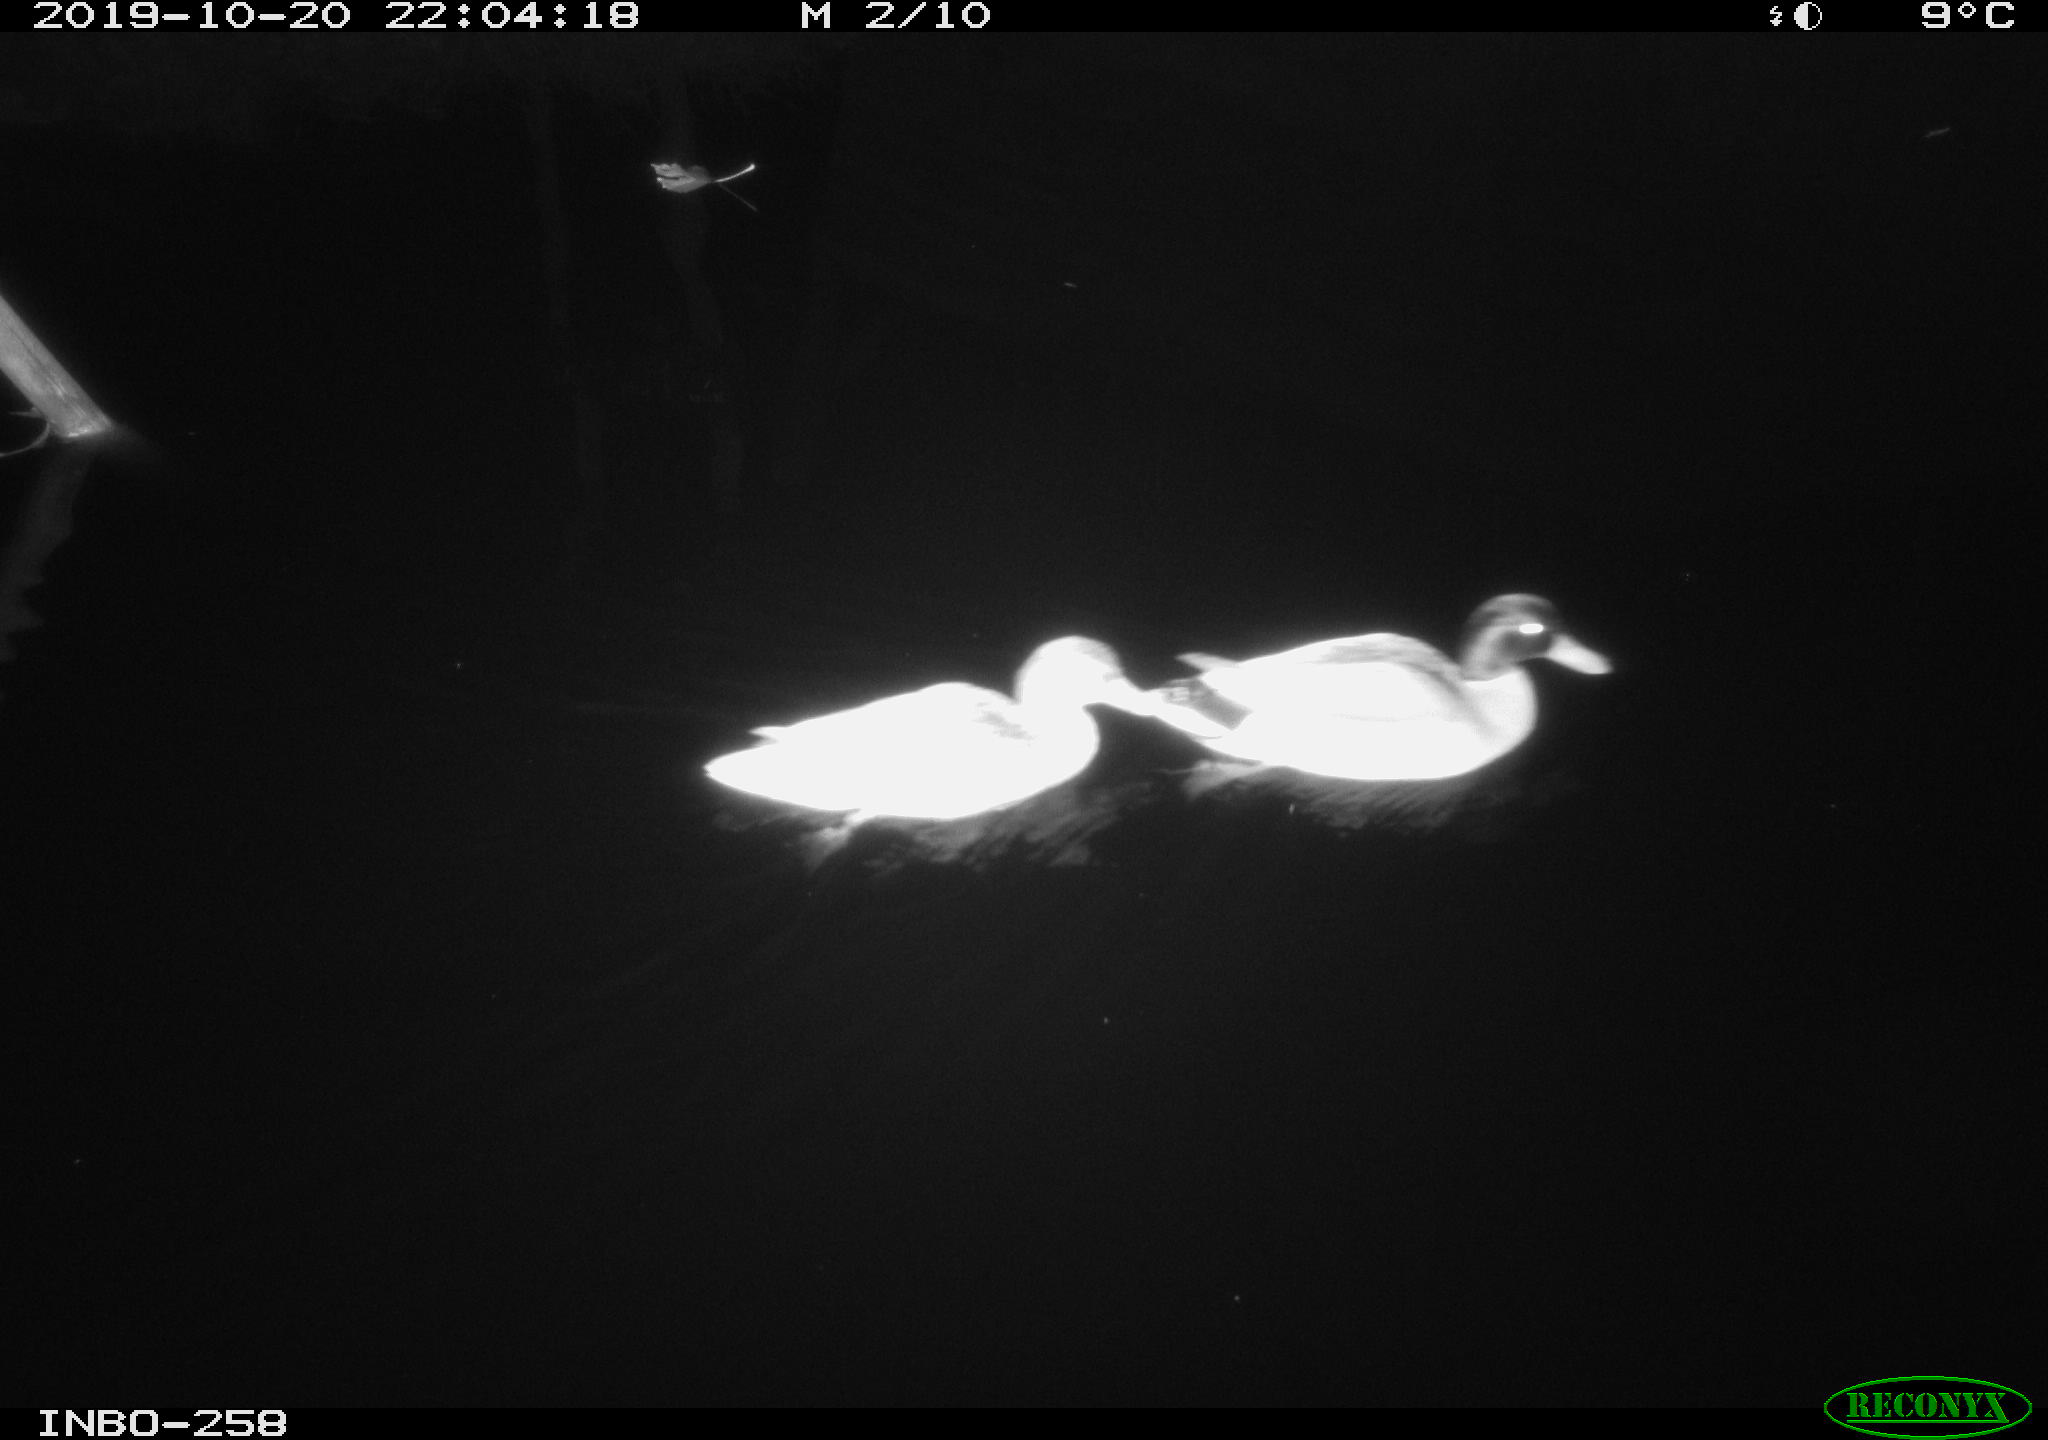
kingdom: Animalia
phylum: Chordata
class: Aves
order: Anseriformes
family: Anatidae
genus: Anas
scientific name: Anas platyrhynchos
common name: Mallard
